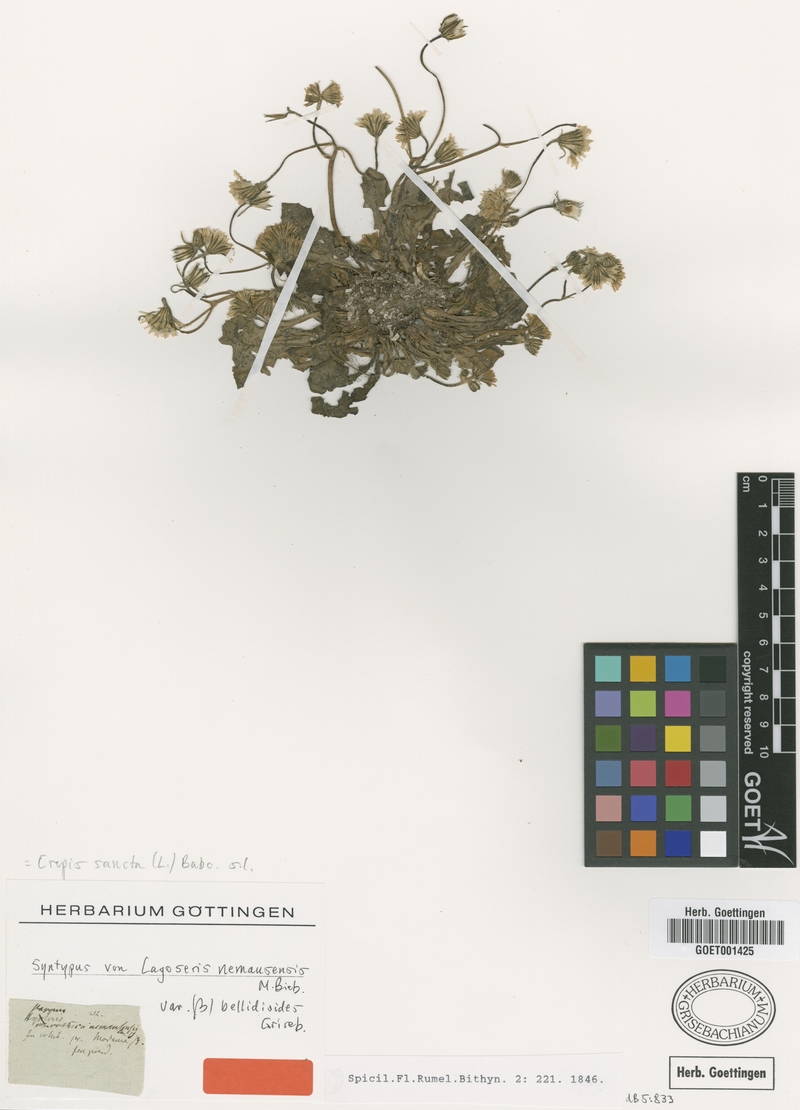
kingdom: Plantae
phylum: Tracheophyta
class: Magnoliopsida
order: Asterales
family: Asteraceae
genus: Crepis
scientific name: Crepis sancta
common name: Hawk's-beard
